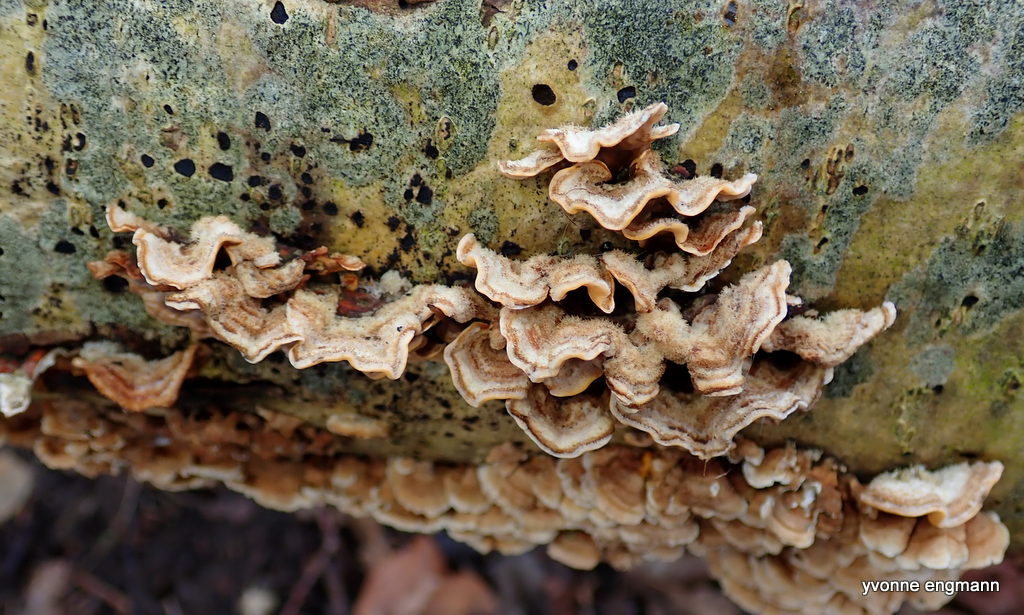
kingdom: Fungi
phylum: Basidiomycota
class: Agaricomycetes
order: Russulales
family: Stereaceae
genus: Stereum
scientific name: Stereum hirsutum
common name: håret lædersvamp
